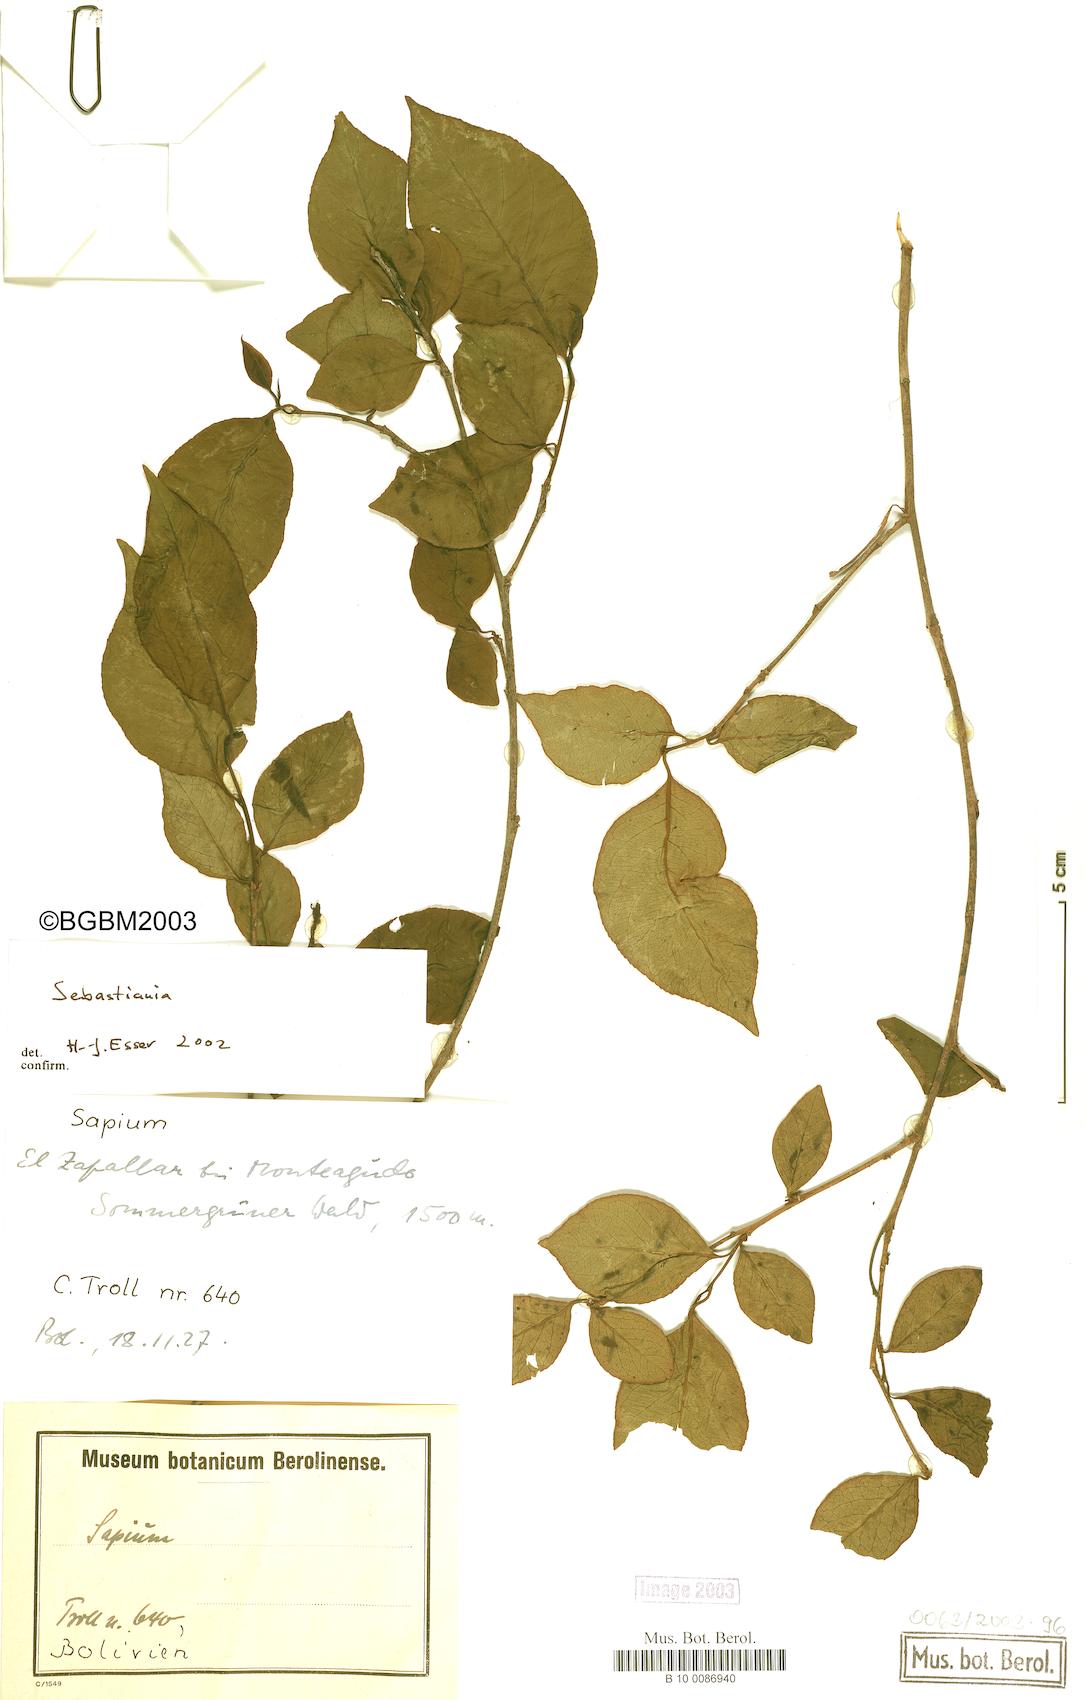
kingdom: Plantae
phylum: Tracheophyta
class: Magnoliopsida
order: Malpighiales
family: Euphorbiaceae
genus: Sebastiania
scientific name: Sebastiania
